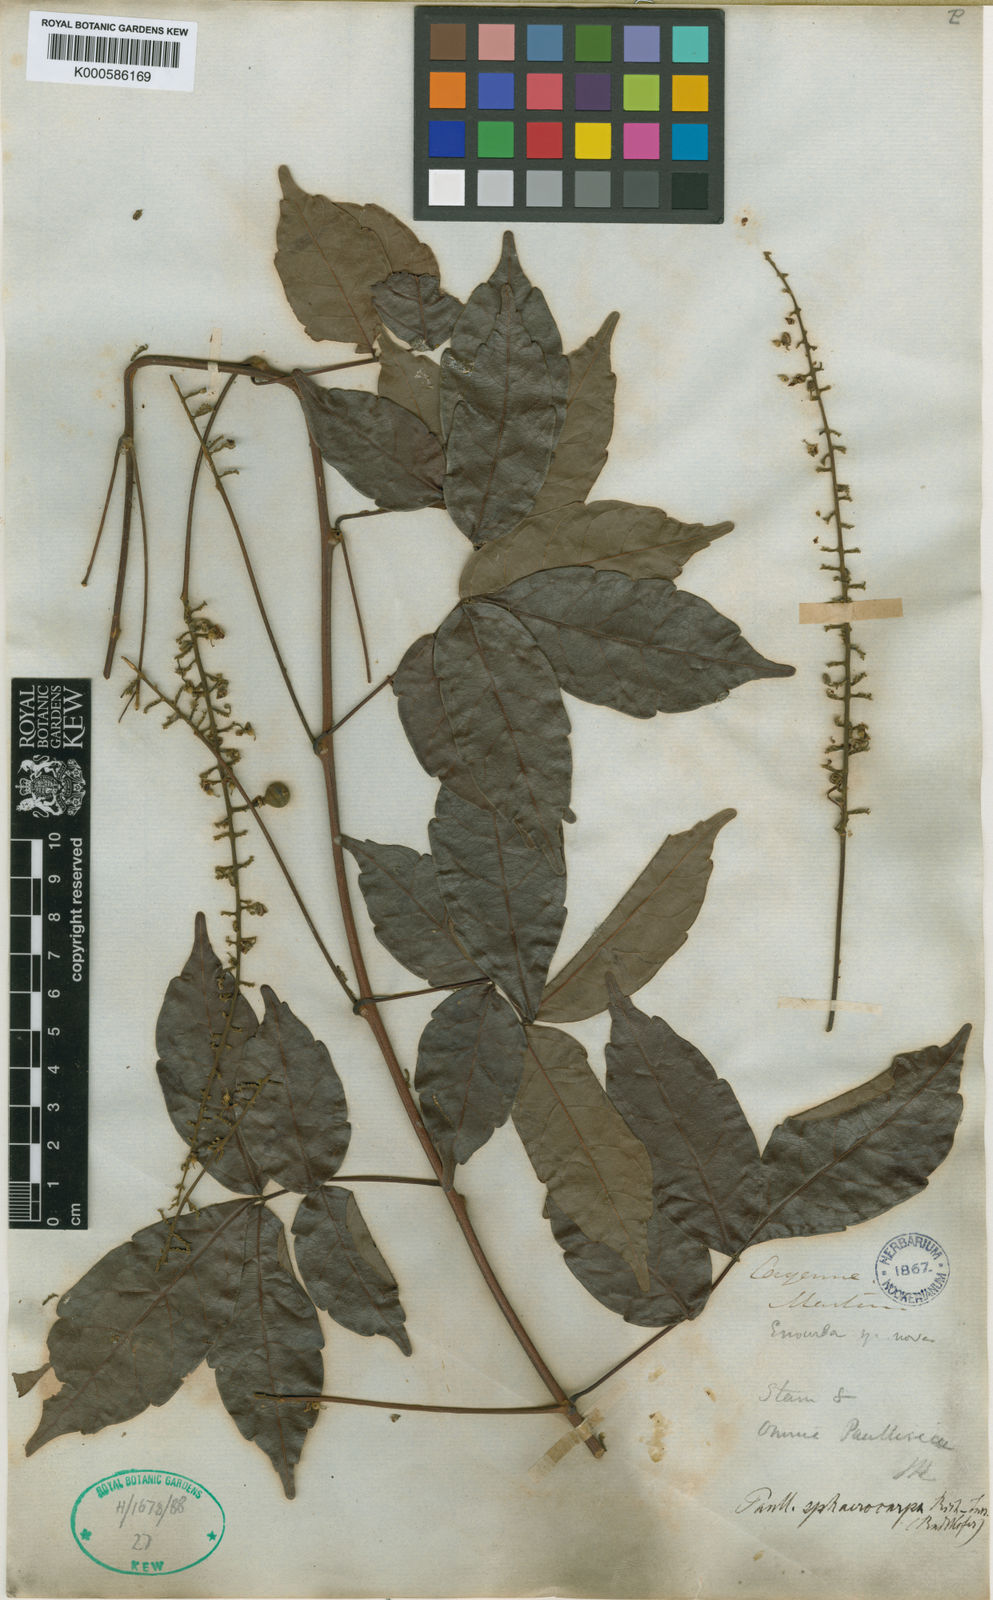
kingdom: Plantae
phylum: Tracheophyta
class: Magnoliopsida
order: Sapindales
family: Sapindaceae
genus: Paullinia
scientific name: Paullinia sphaerocarpa
